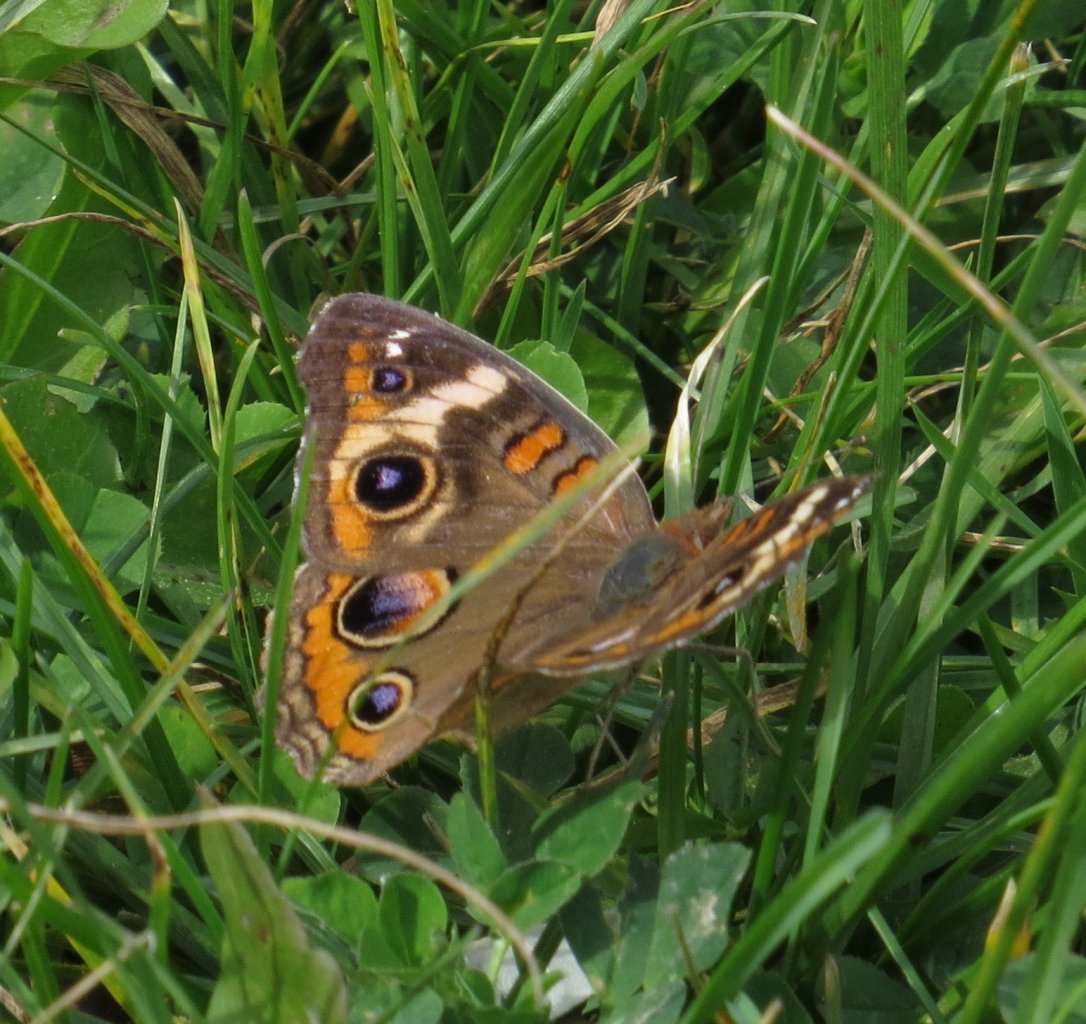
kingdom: Animalia
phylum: Arthropoda
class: Insecta
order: Lepidoptera
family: Nymphalidae
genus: Junonia
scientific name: Junonia coenia
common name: Common Buckeye
